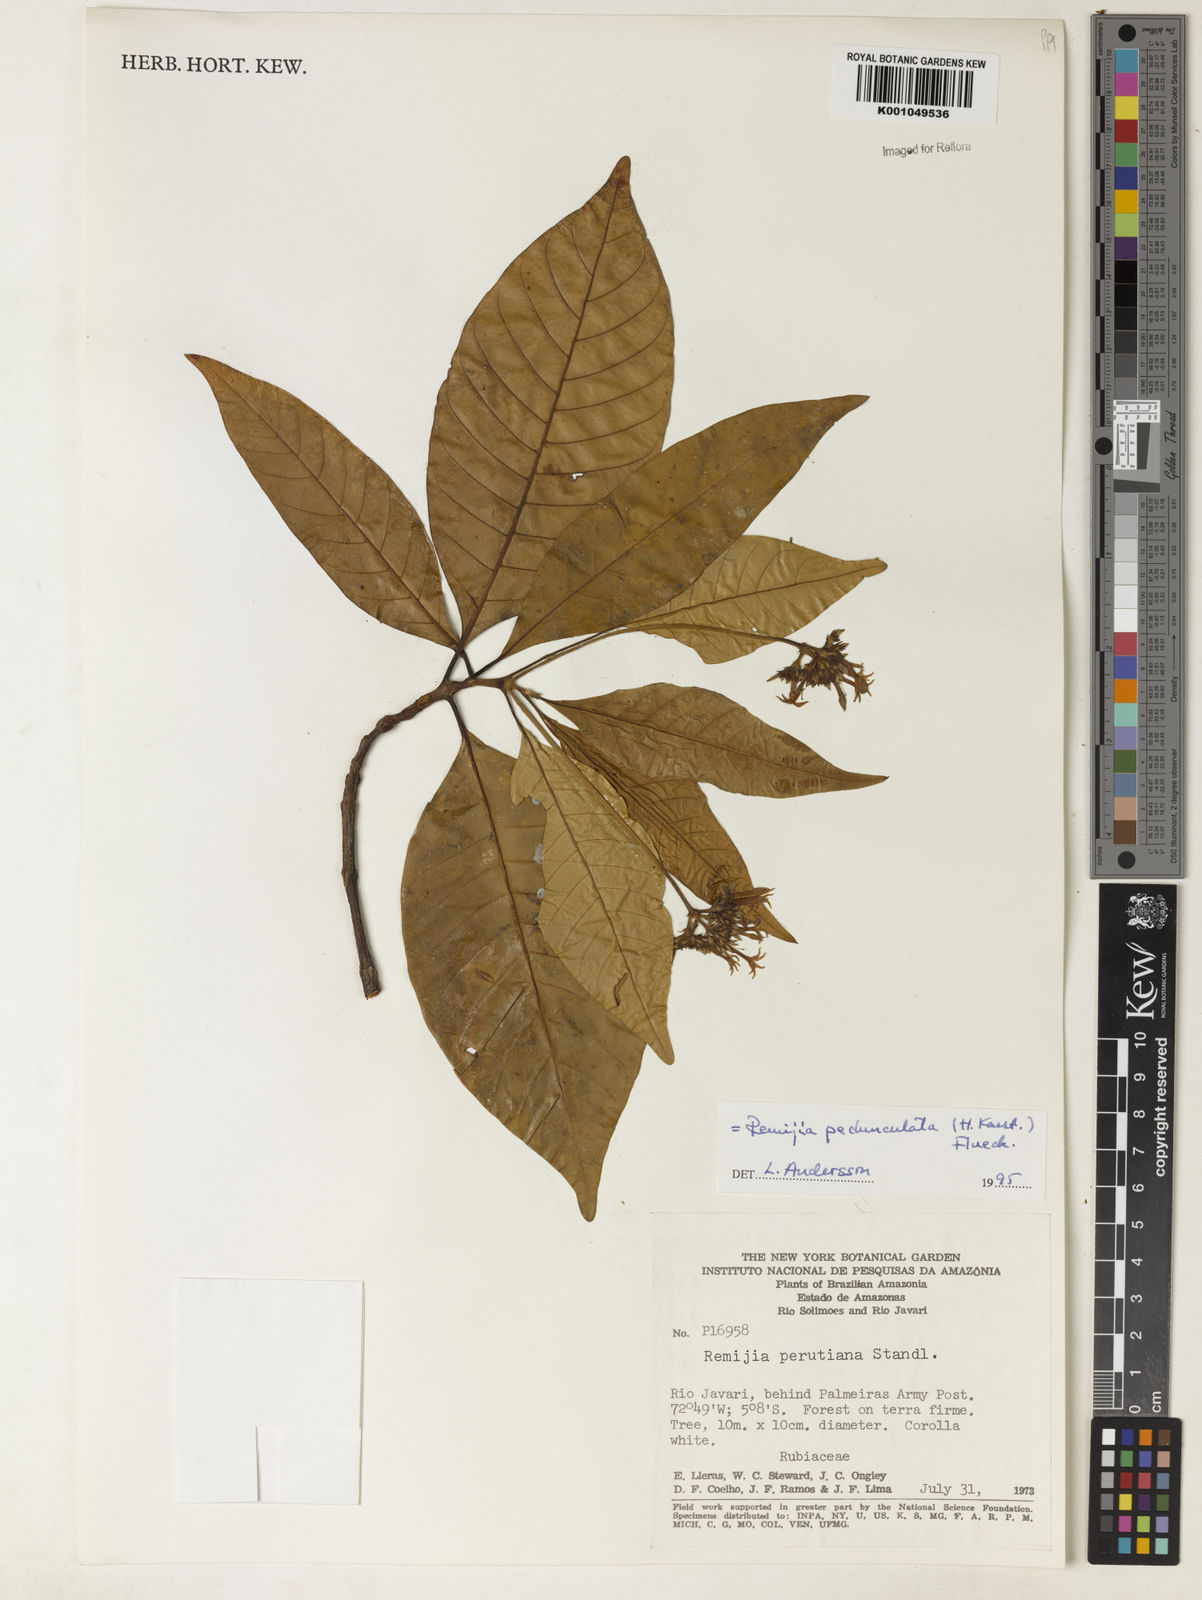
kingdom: Plantae
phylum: Tracheophyta
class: Magnoliopsida
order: Gentianales
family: Rubiaceae
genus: Ciliosemina
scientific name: Ciliosemina pedunculata
